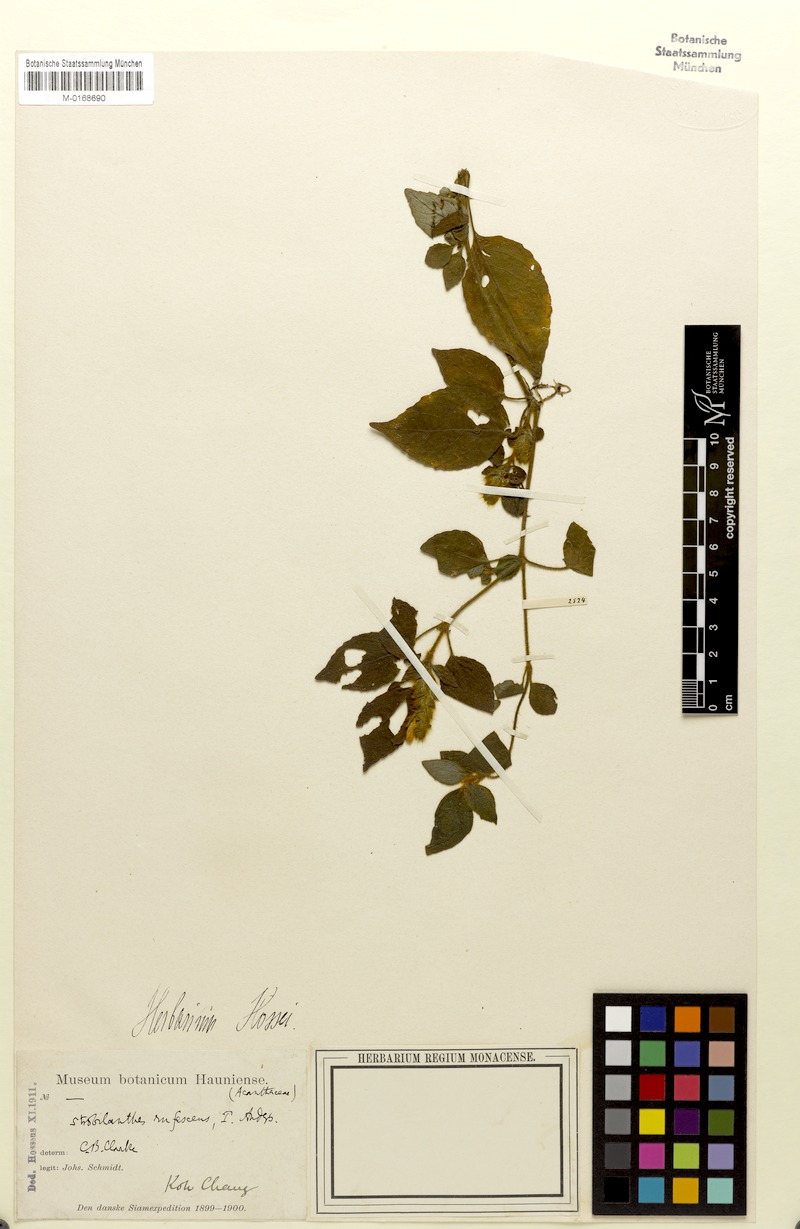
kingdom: Plantae
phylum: Tracheophyta
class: Magnoliopsida
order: Lamiales
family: Acanthaceae
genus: Strobilanthes
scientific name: Strobilanthes rufescens
